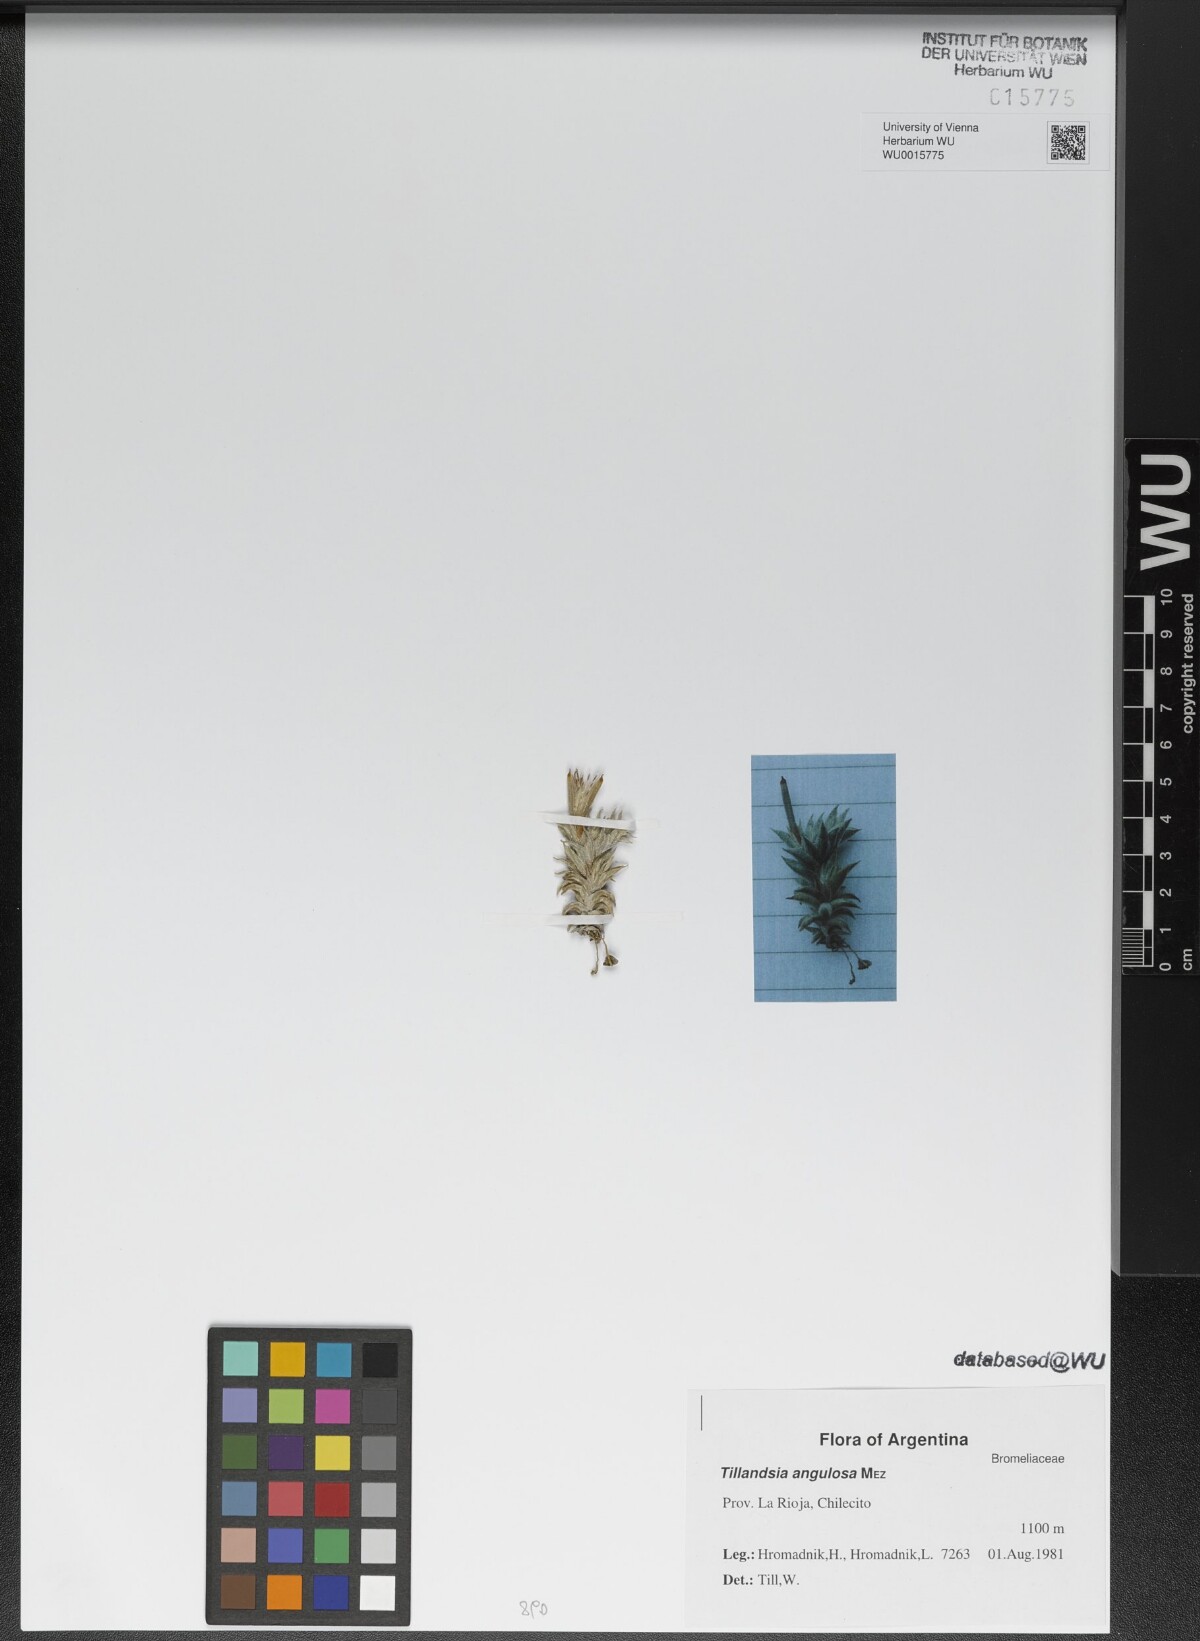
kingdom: Plantae
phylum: Tracheophyta
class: Liliopsida
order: Poales
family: Bromeliaceae
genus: Tillandsia
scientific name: Tillandsia angulosa
